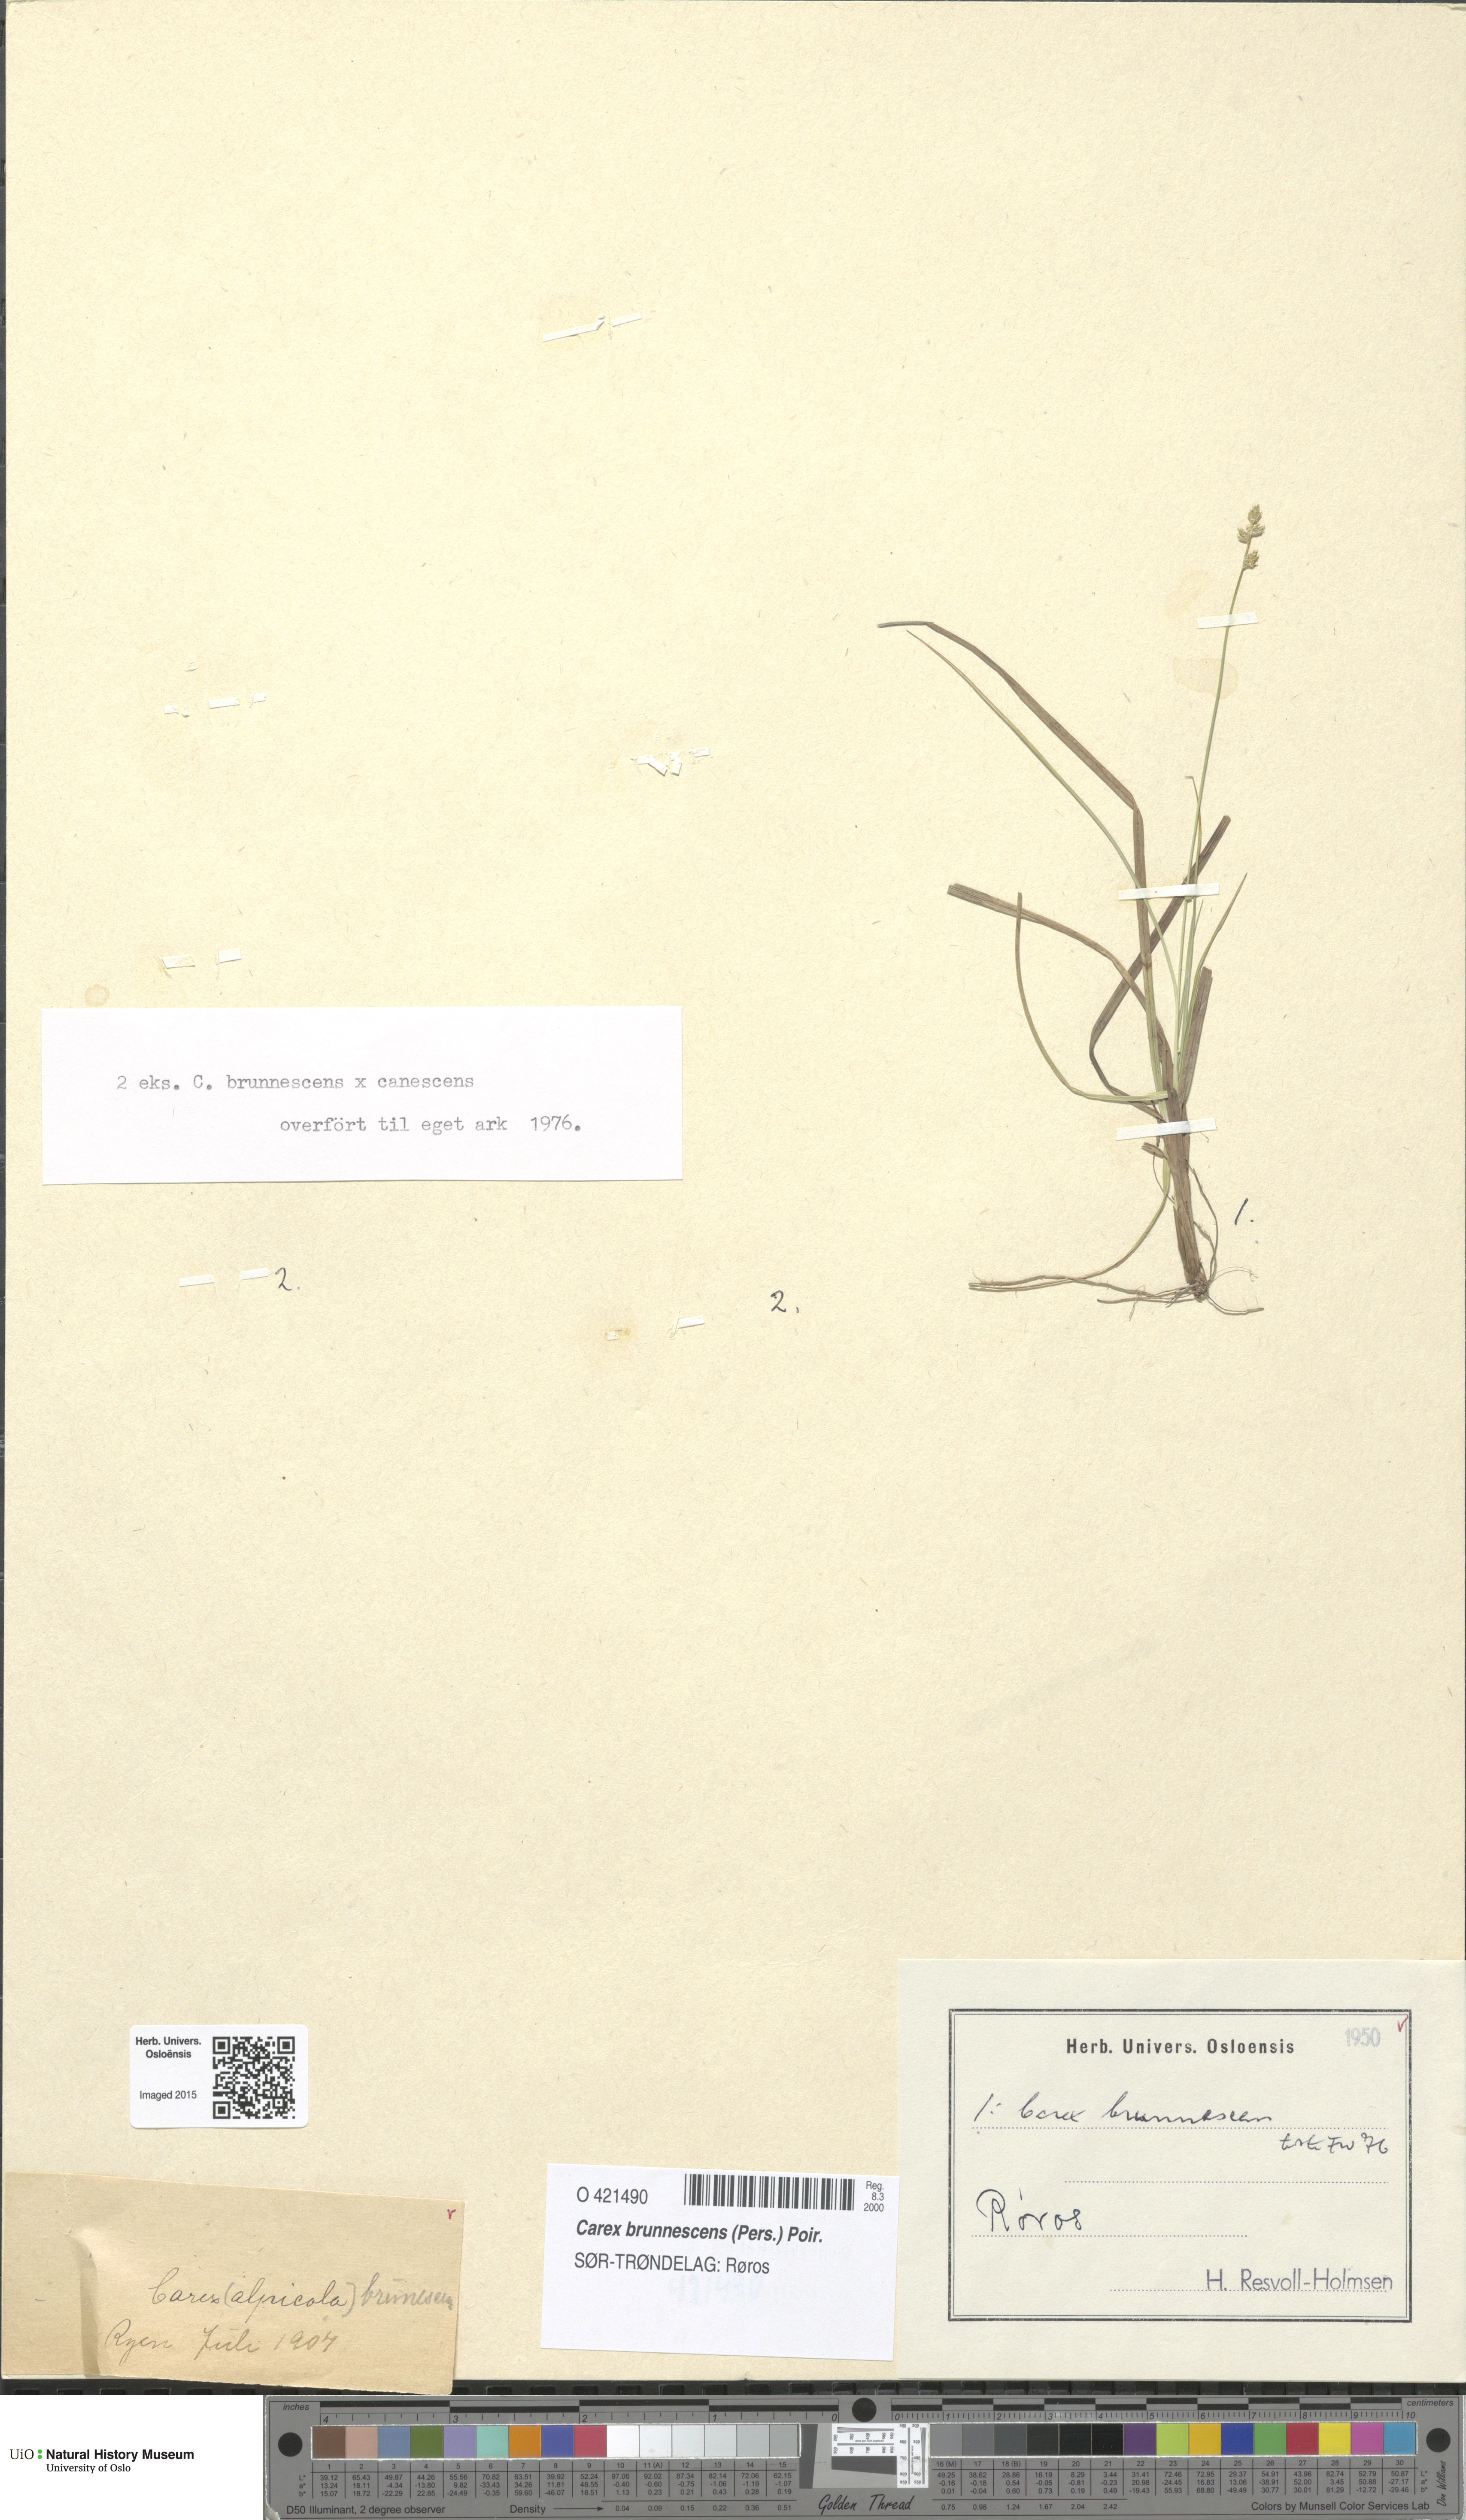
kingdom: Plantae
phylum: Tracheophyta
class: Liliopsida
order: Poales
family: Cyperaceae
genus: Carex
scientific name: Carex brunnescens
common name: Brown sedge
